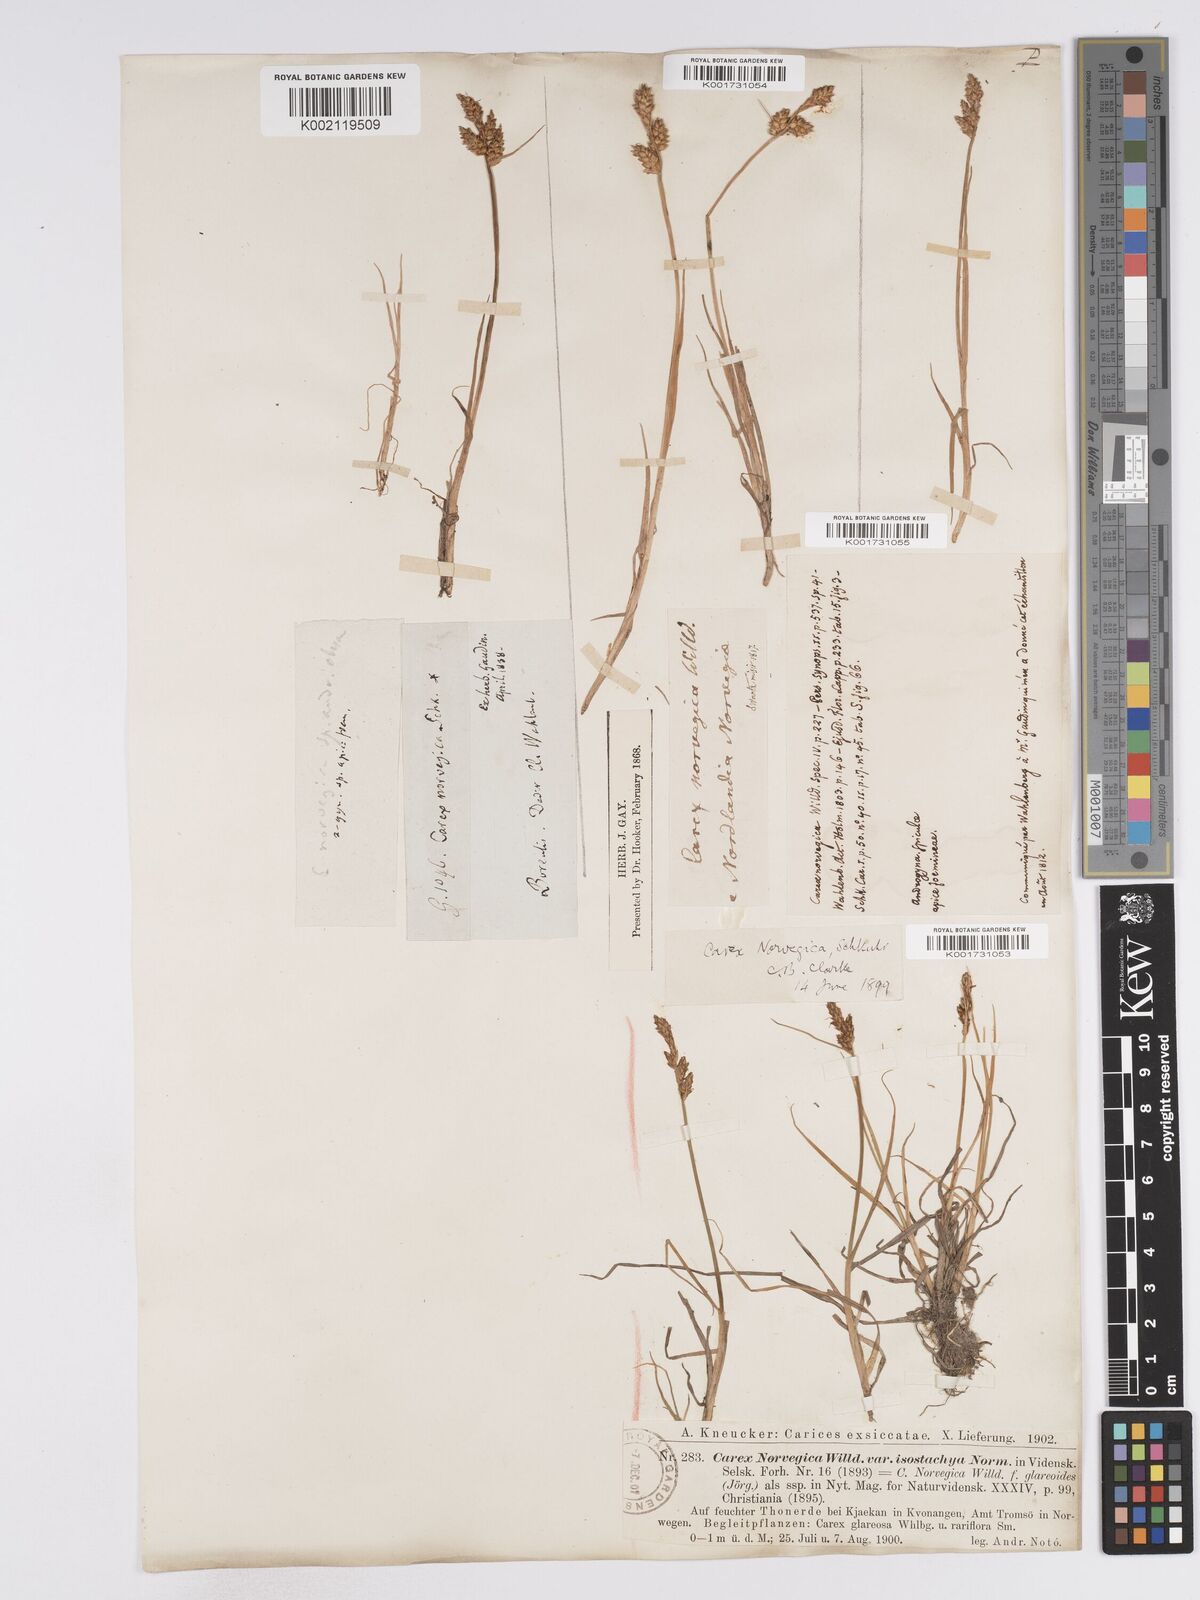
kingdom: Plantae
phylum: Tracheophyta
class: Liliopsida
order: Poales
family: Cyperaceae
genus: Carex
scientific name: Carex mackenziei
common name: Mackenzie's sedge
